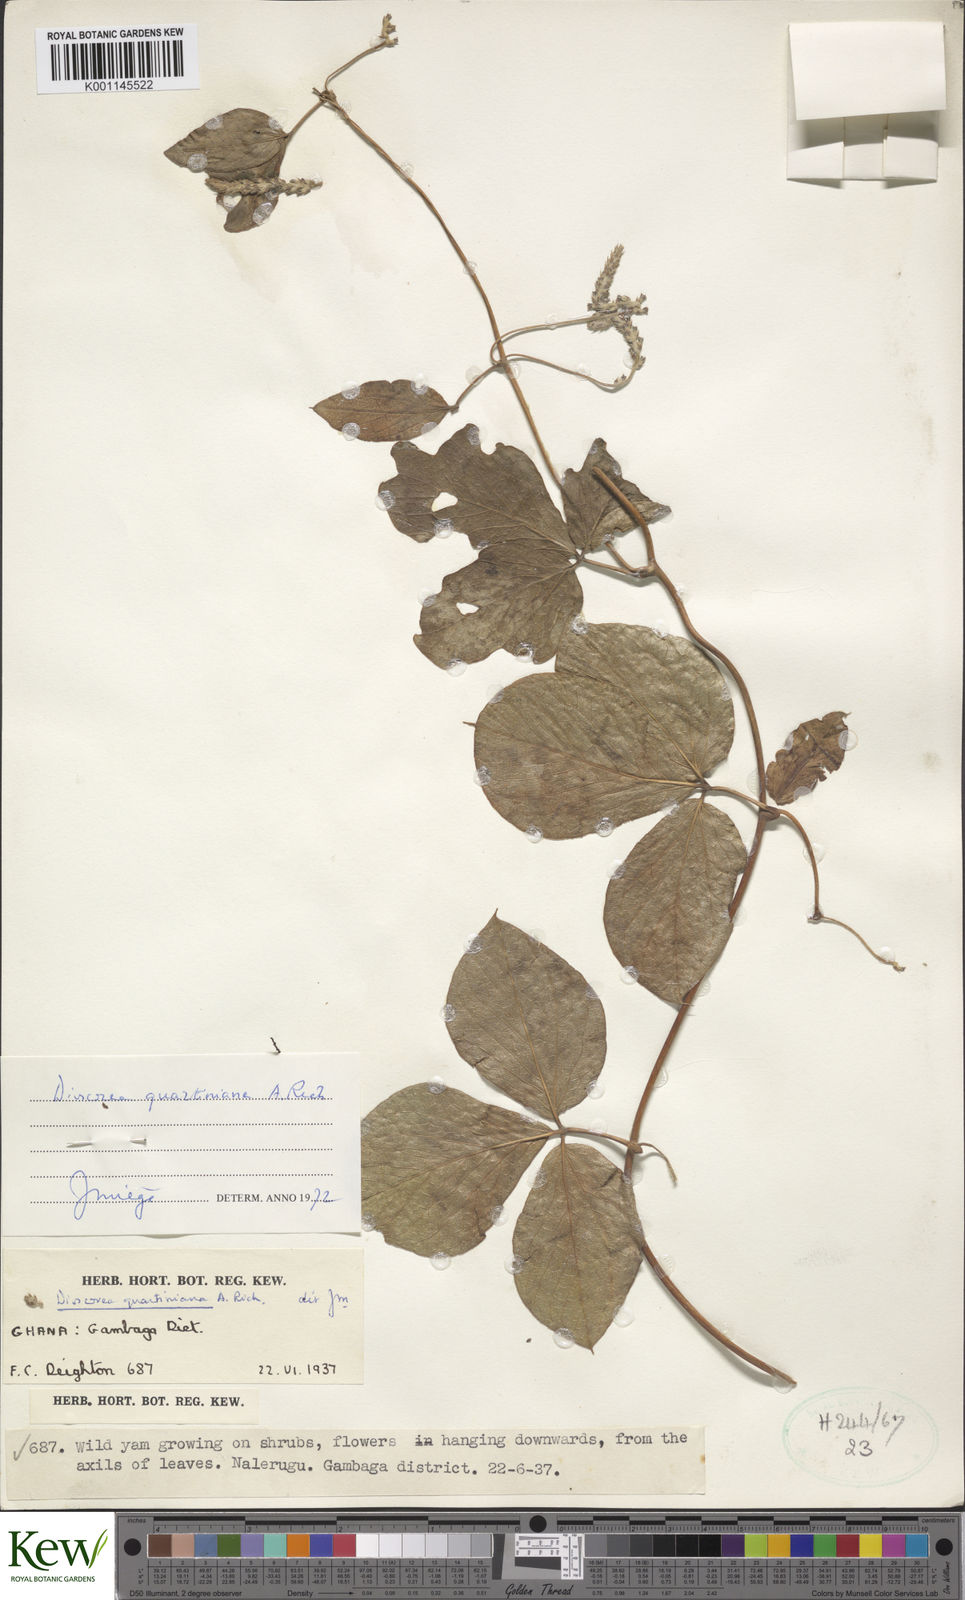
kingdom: Plantae
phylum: Tracheophyta
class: Liliopsida
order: Dioscoreales
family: Dioscoreaceae
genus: Dioscorea
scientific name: Dioscorea quartiniana
